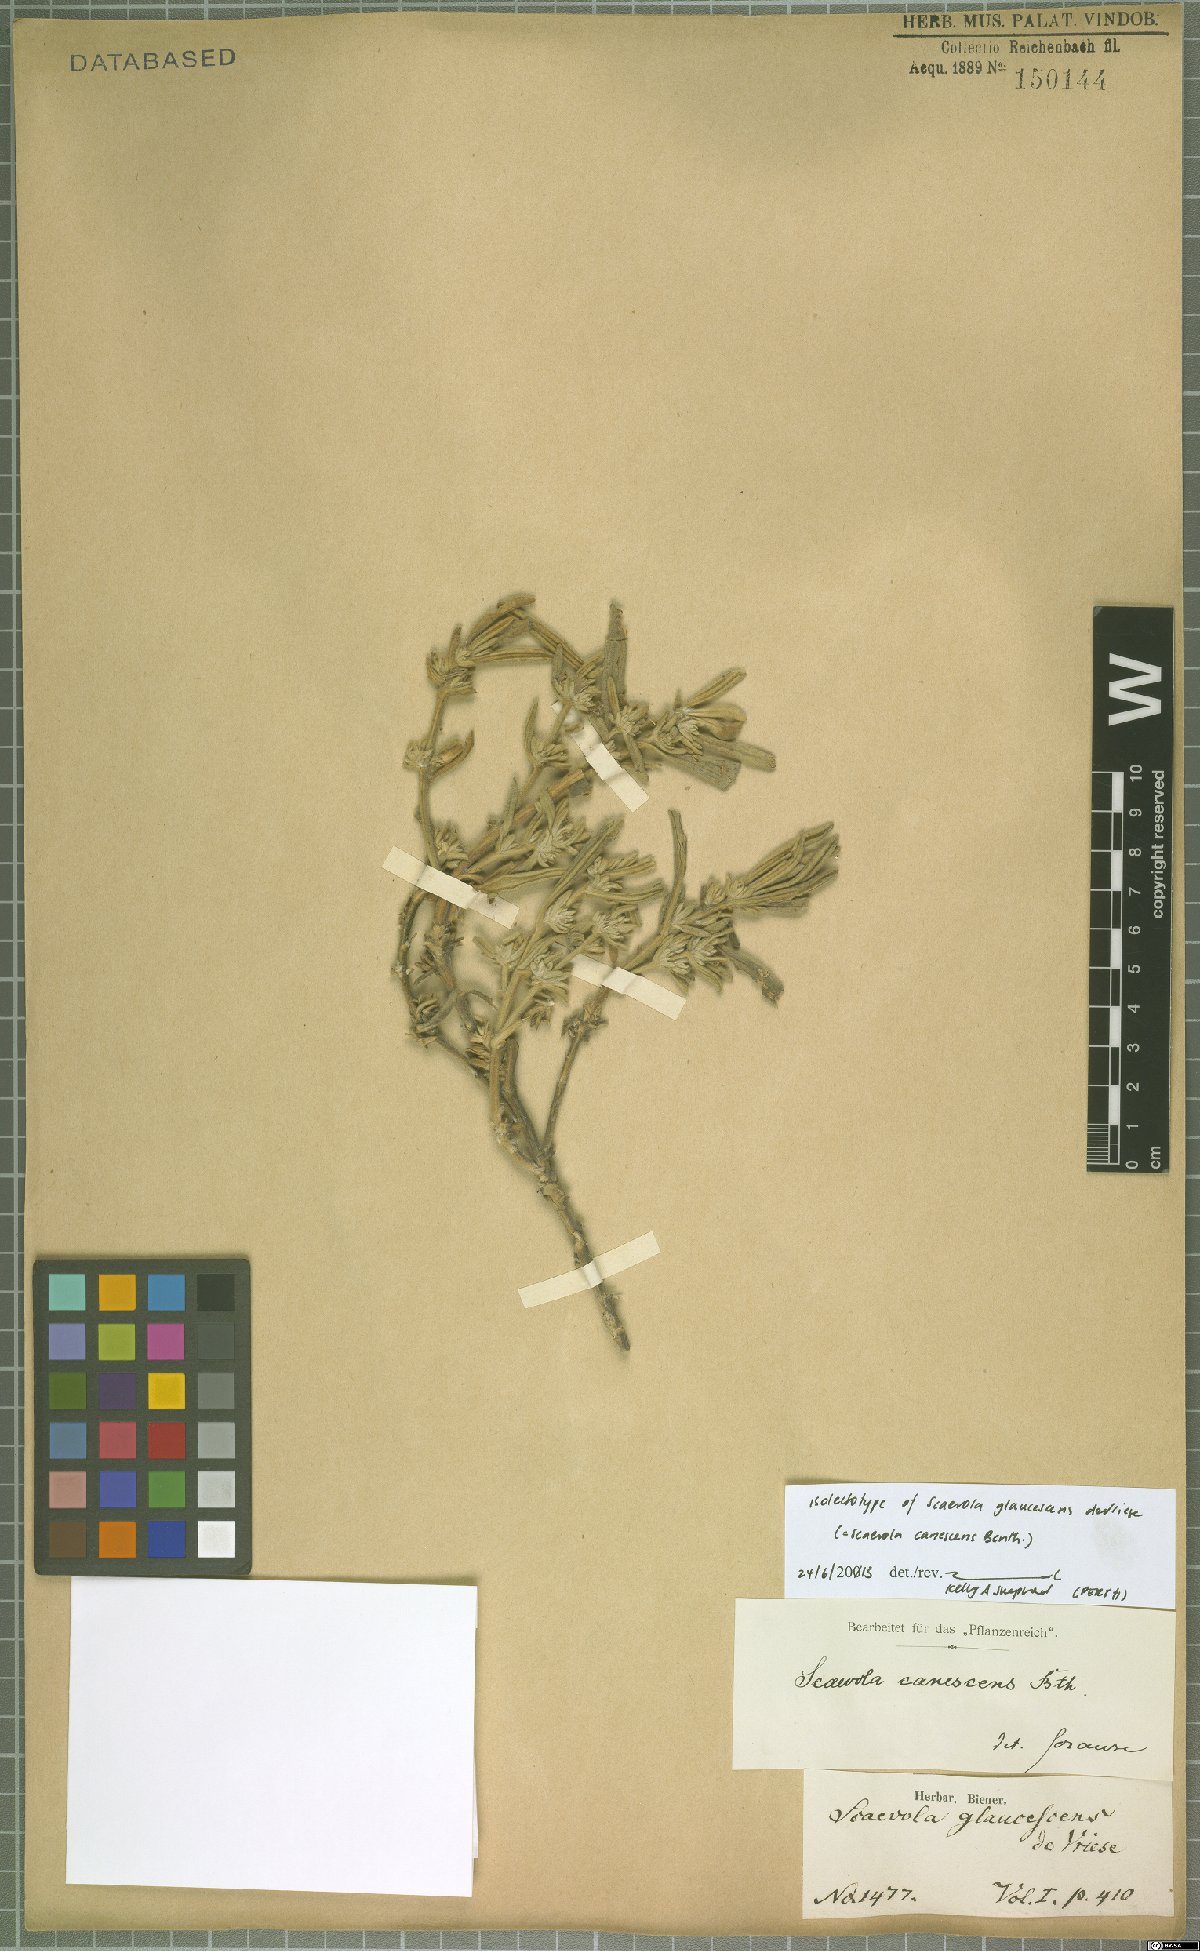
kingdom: Plantae
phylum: Tracheophyta
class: Magnoliopsida
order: Asterales
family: Goodeniaceae
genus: Scaevola
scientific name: Scaevola canescens
